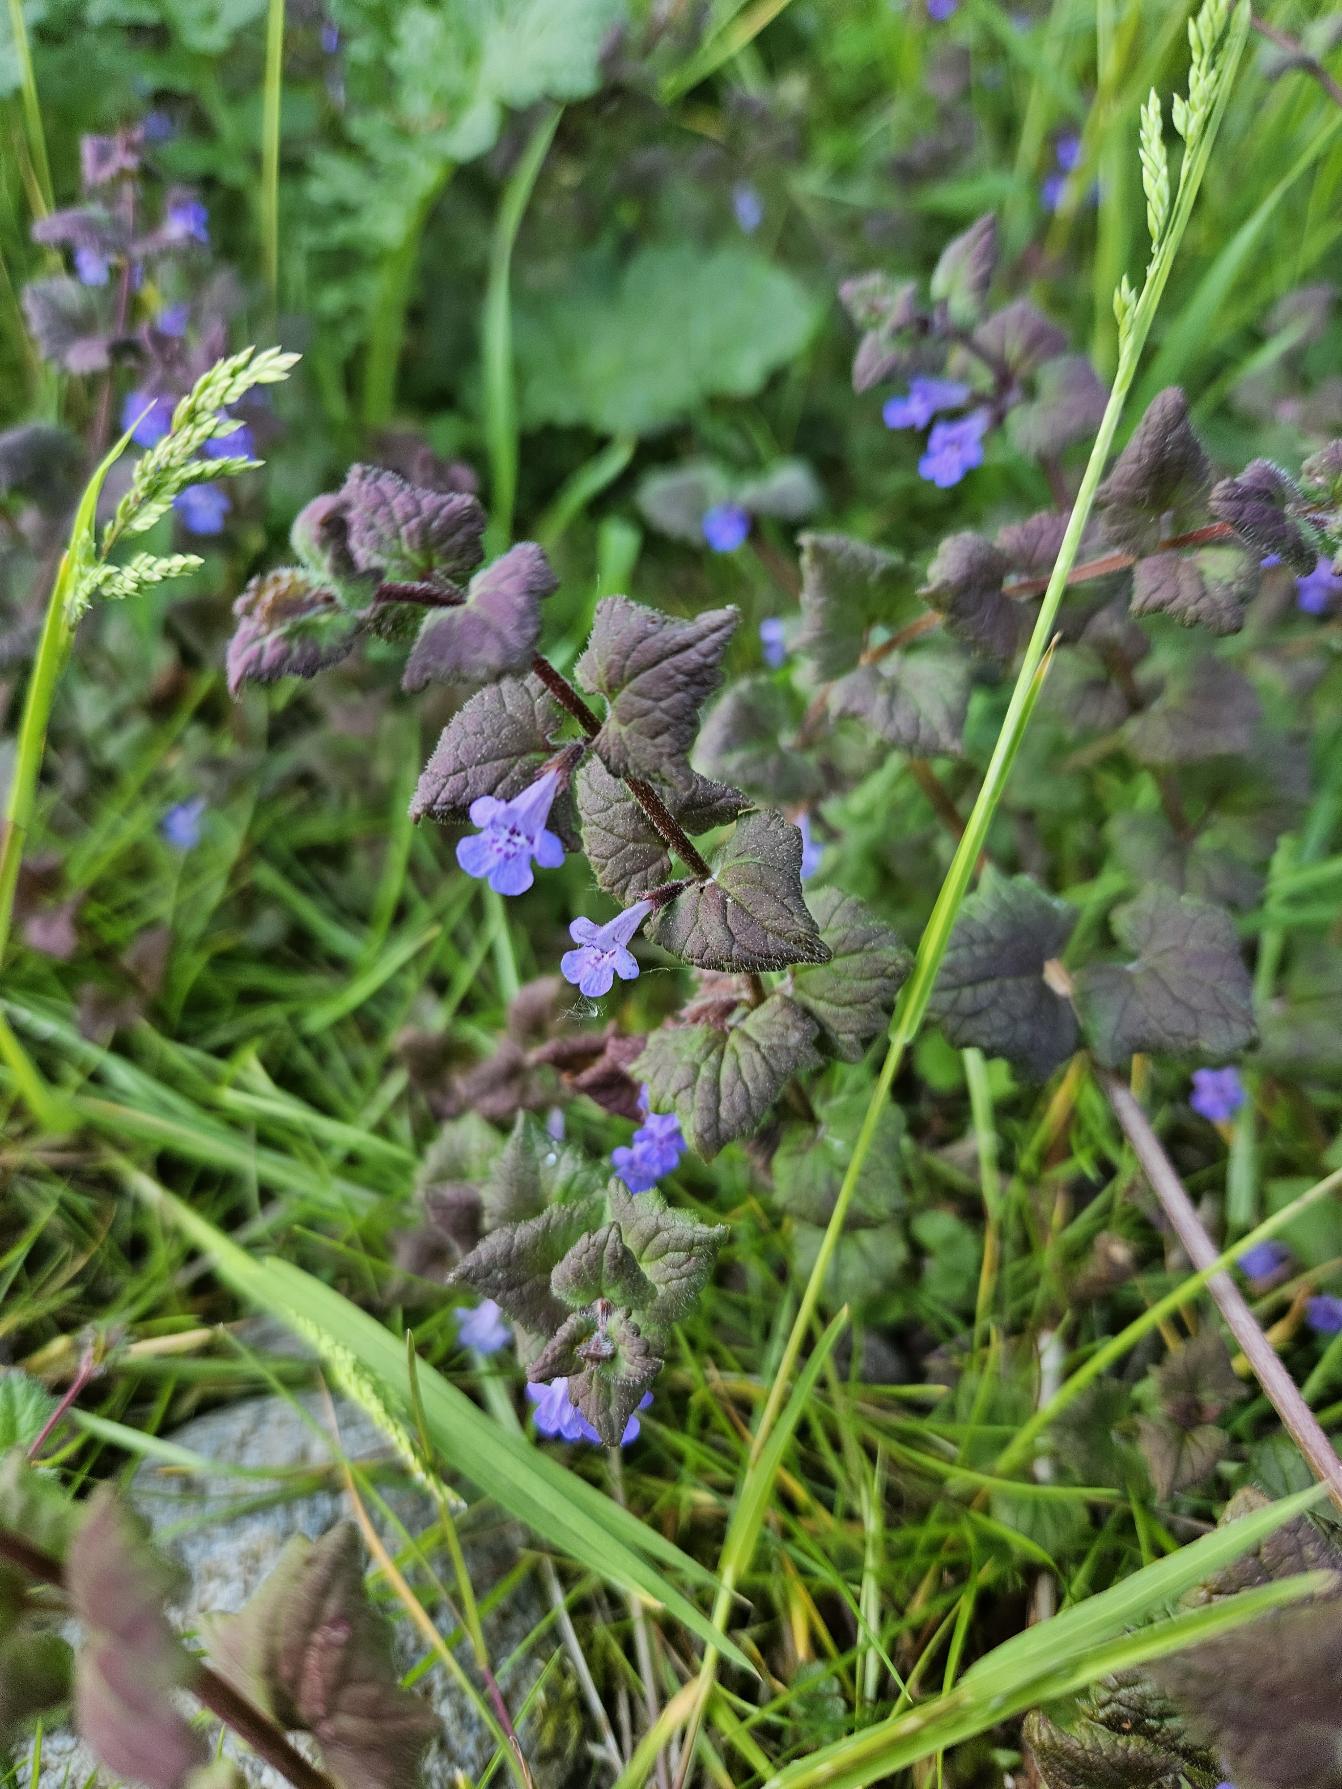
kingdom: Plantae
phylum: Tracheophyta
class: Magnoliopsida
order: Lamiales
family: Lamiaceae
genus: Glechoma
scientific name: Glechoma hederacea
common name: Korsknap
